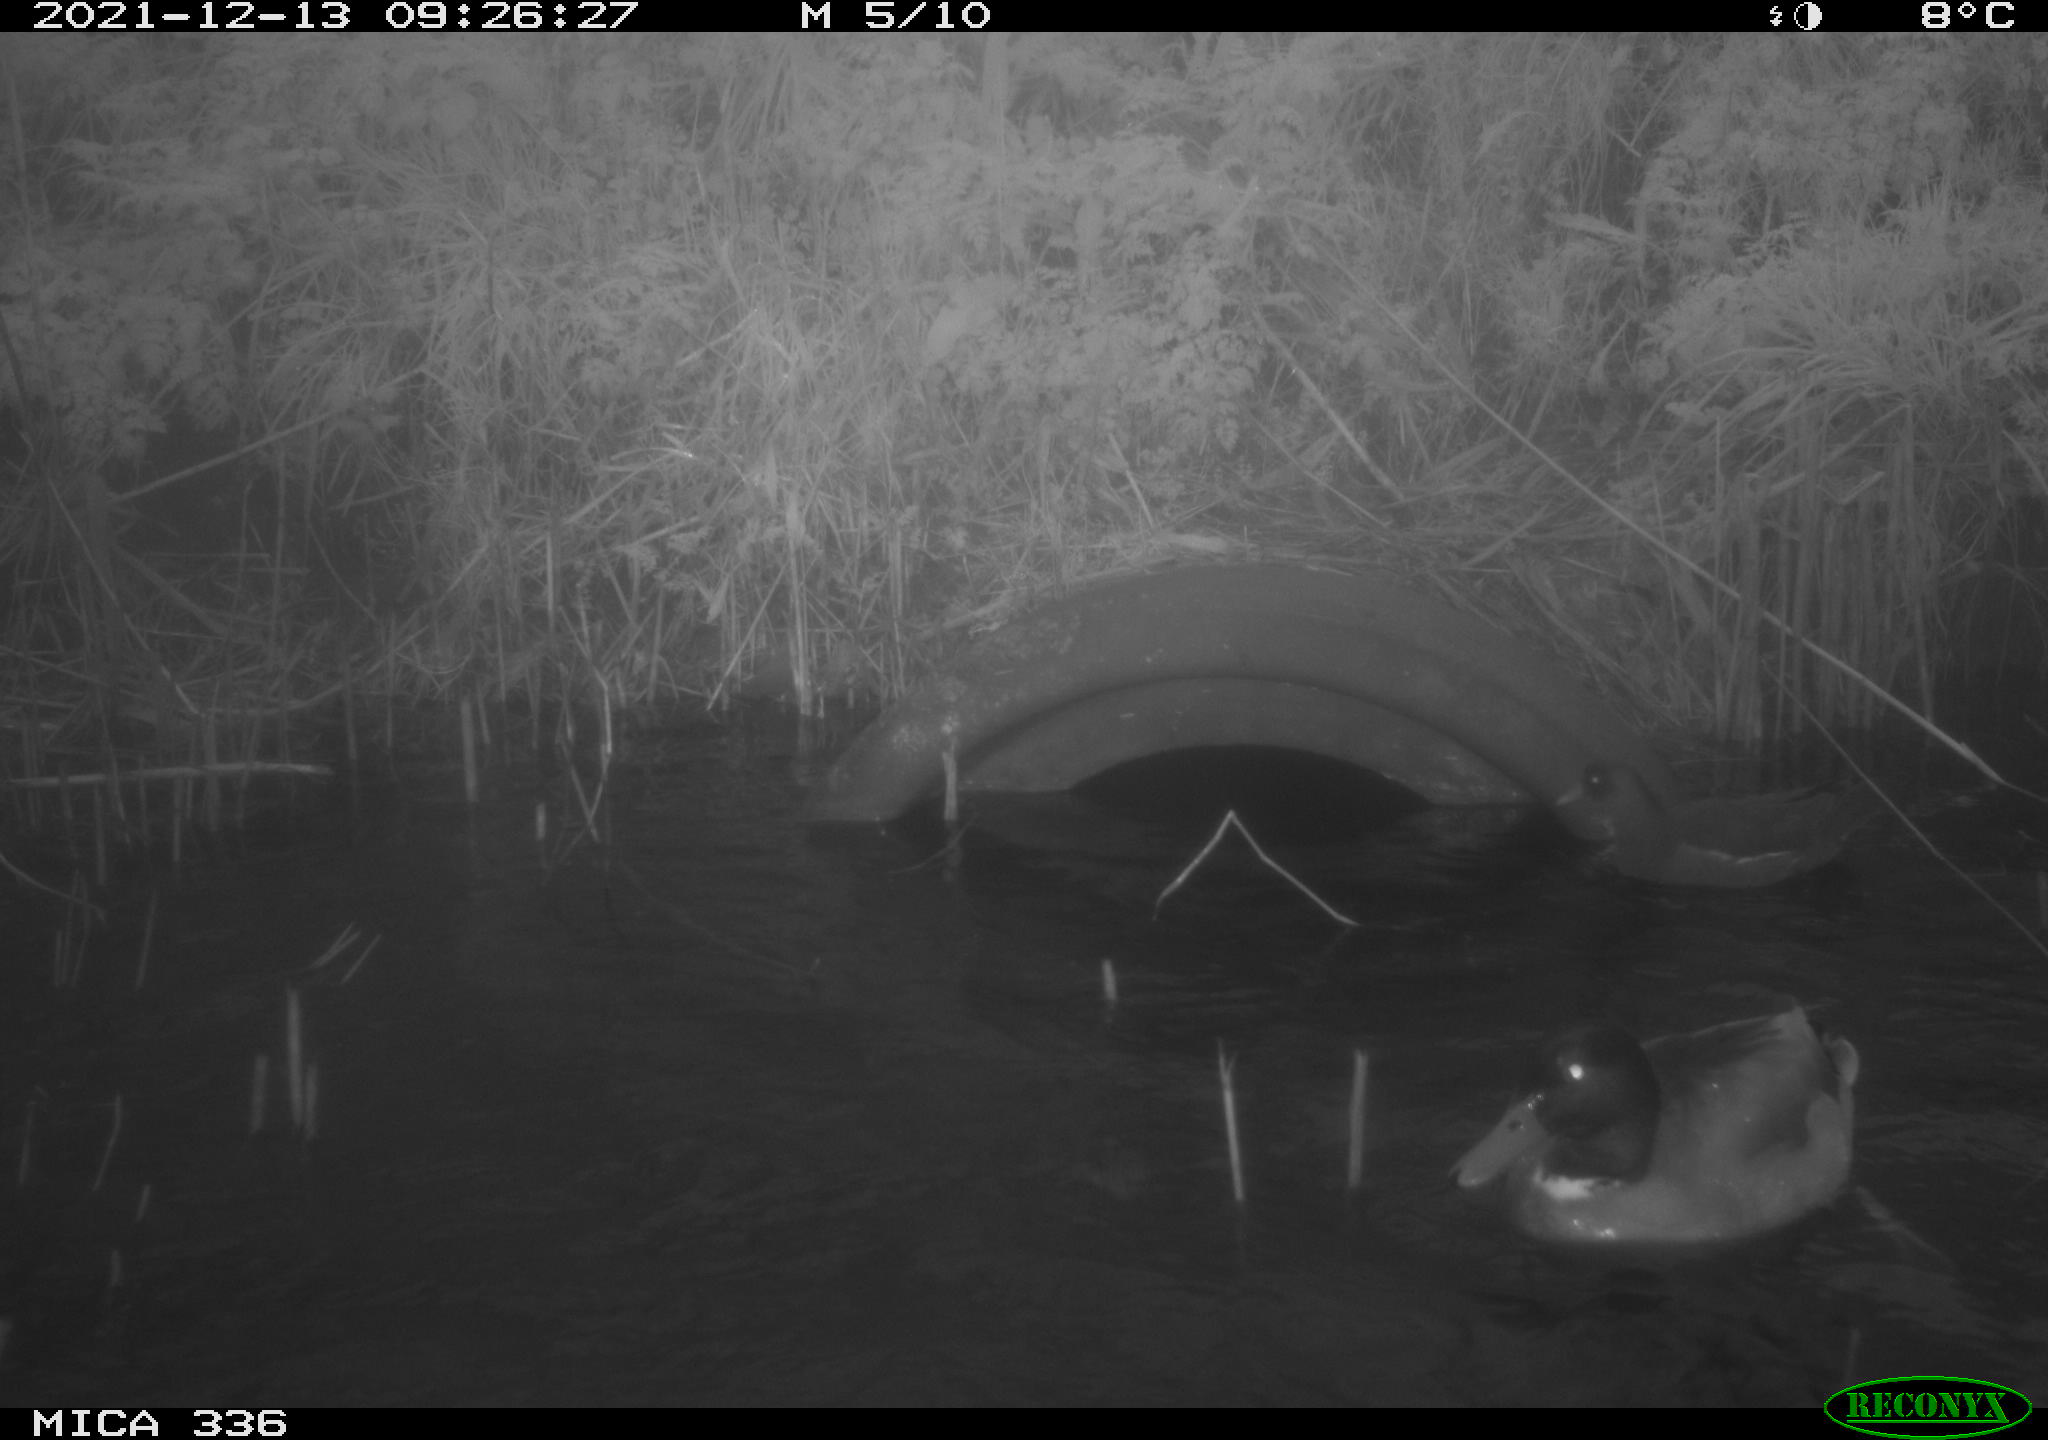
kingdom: Animalia
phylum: Chordata
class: Aves
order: Anseriformes
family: Anatidae
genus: Anas
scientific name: Anas platyrhynchos
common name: Mallard
